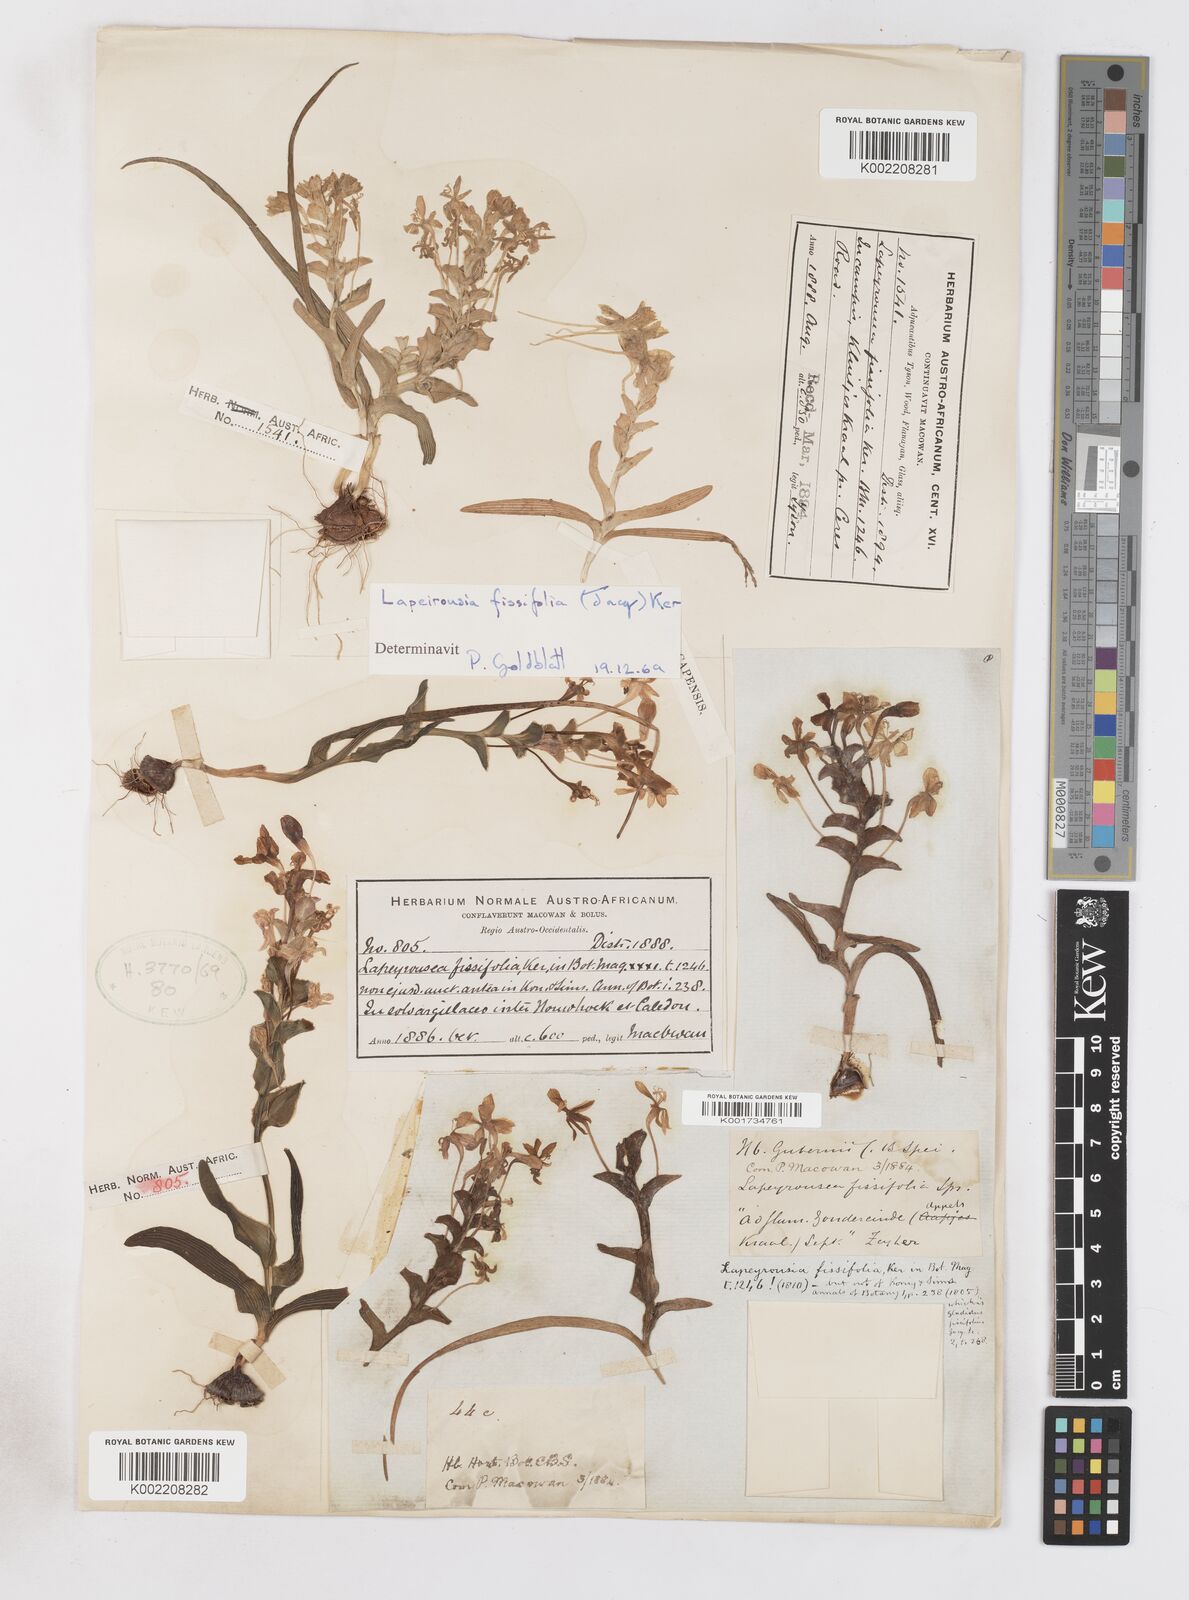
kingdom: Plantae
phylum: Tracheophyta
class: Liliopsida
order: Asparagales
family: Iridaceae
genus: Lapeirousia
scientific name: Lapeirousia pyramidalis
